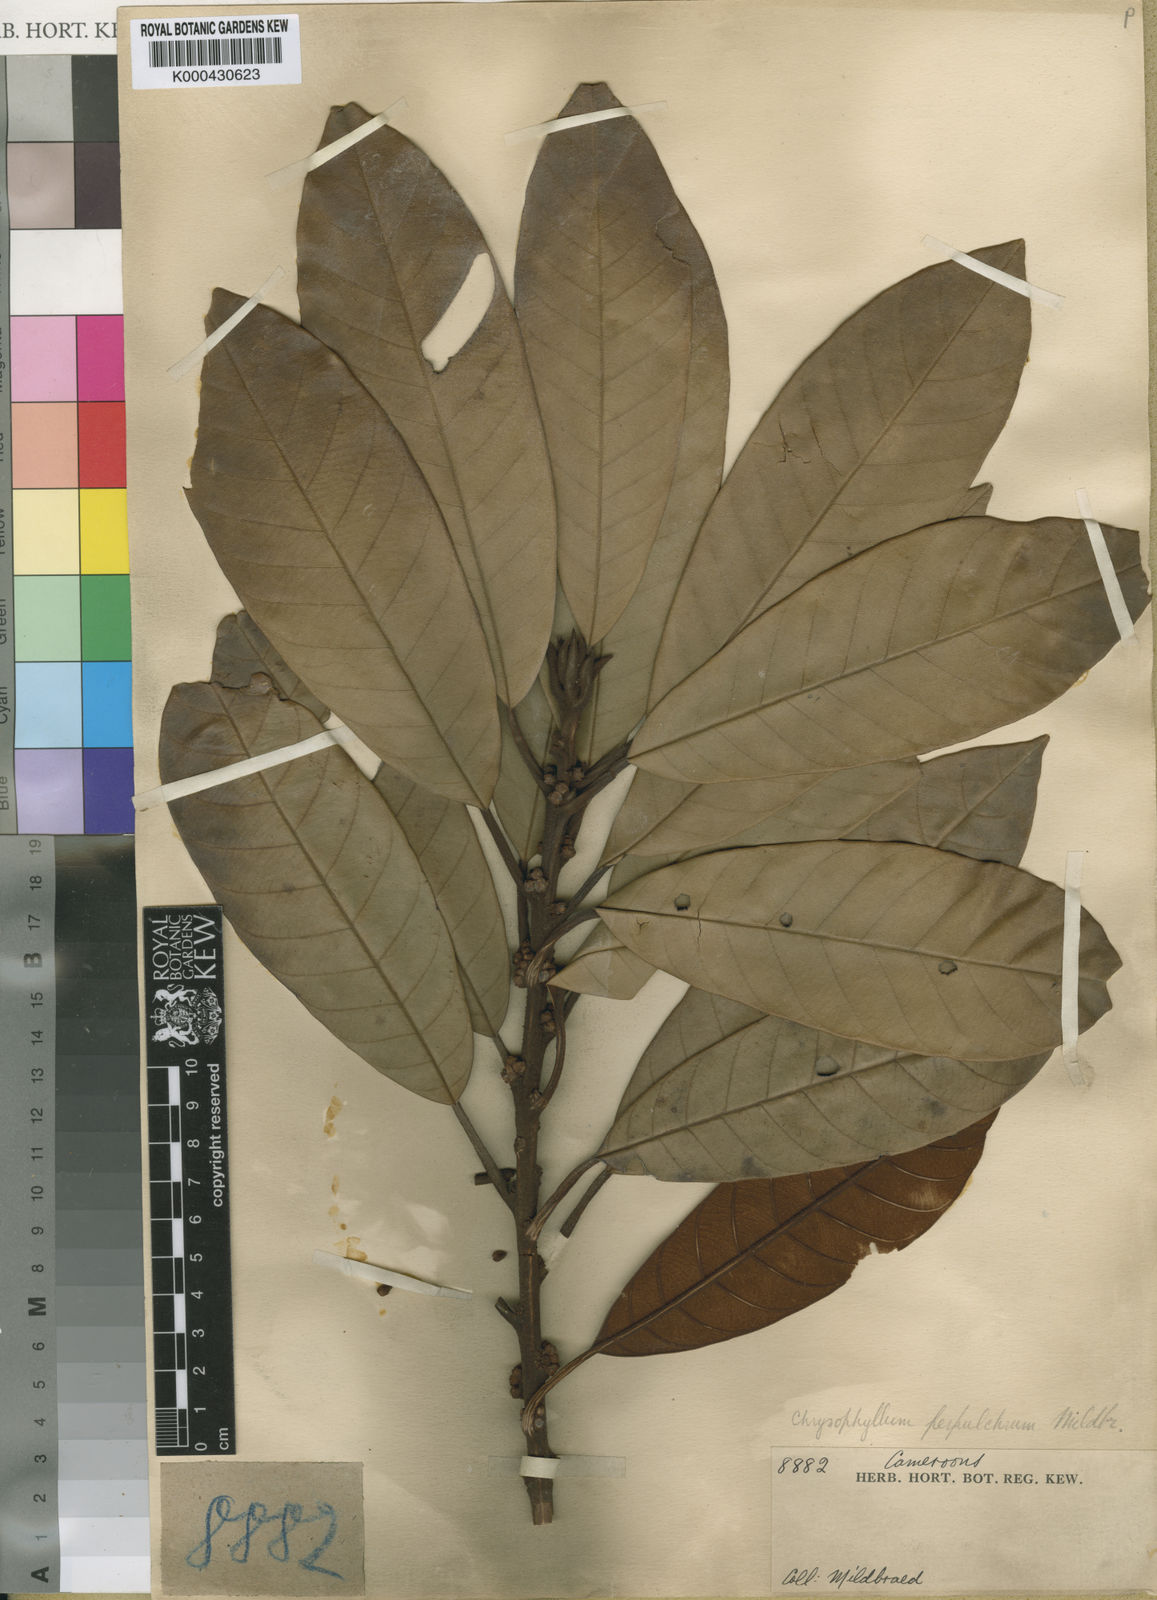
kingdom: Plantae
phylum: Tracheophyta
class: Magnoliopsida
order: Ericales
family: Sapotaceae
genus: Gambeya
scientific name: Gambeya perpulchra
